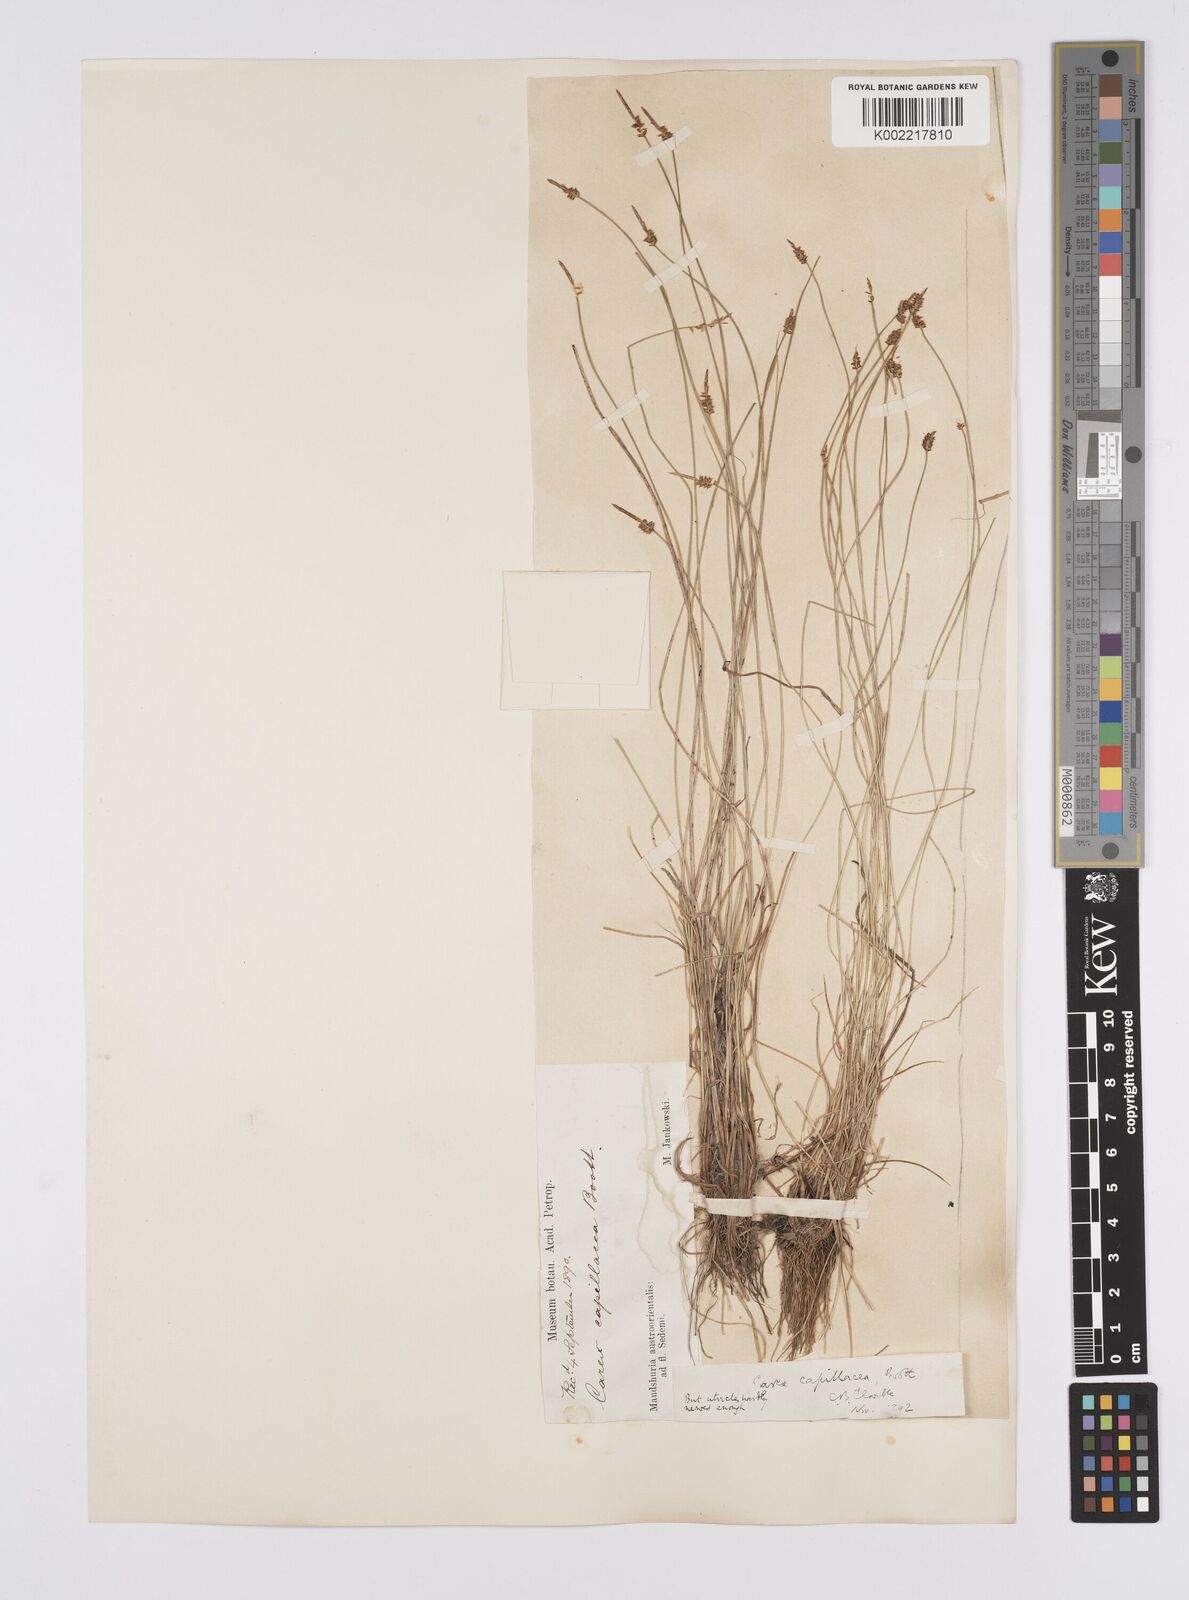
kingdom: Plantae
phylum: Tracheophyta
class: Liliopsida
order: Poales
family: Cyperaceae
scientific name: Cyperaceae
